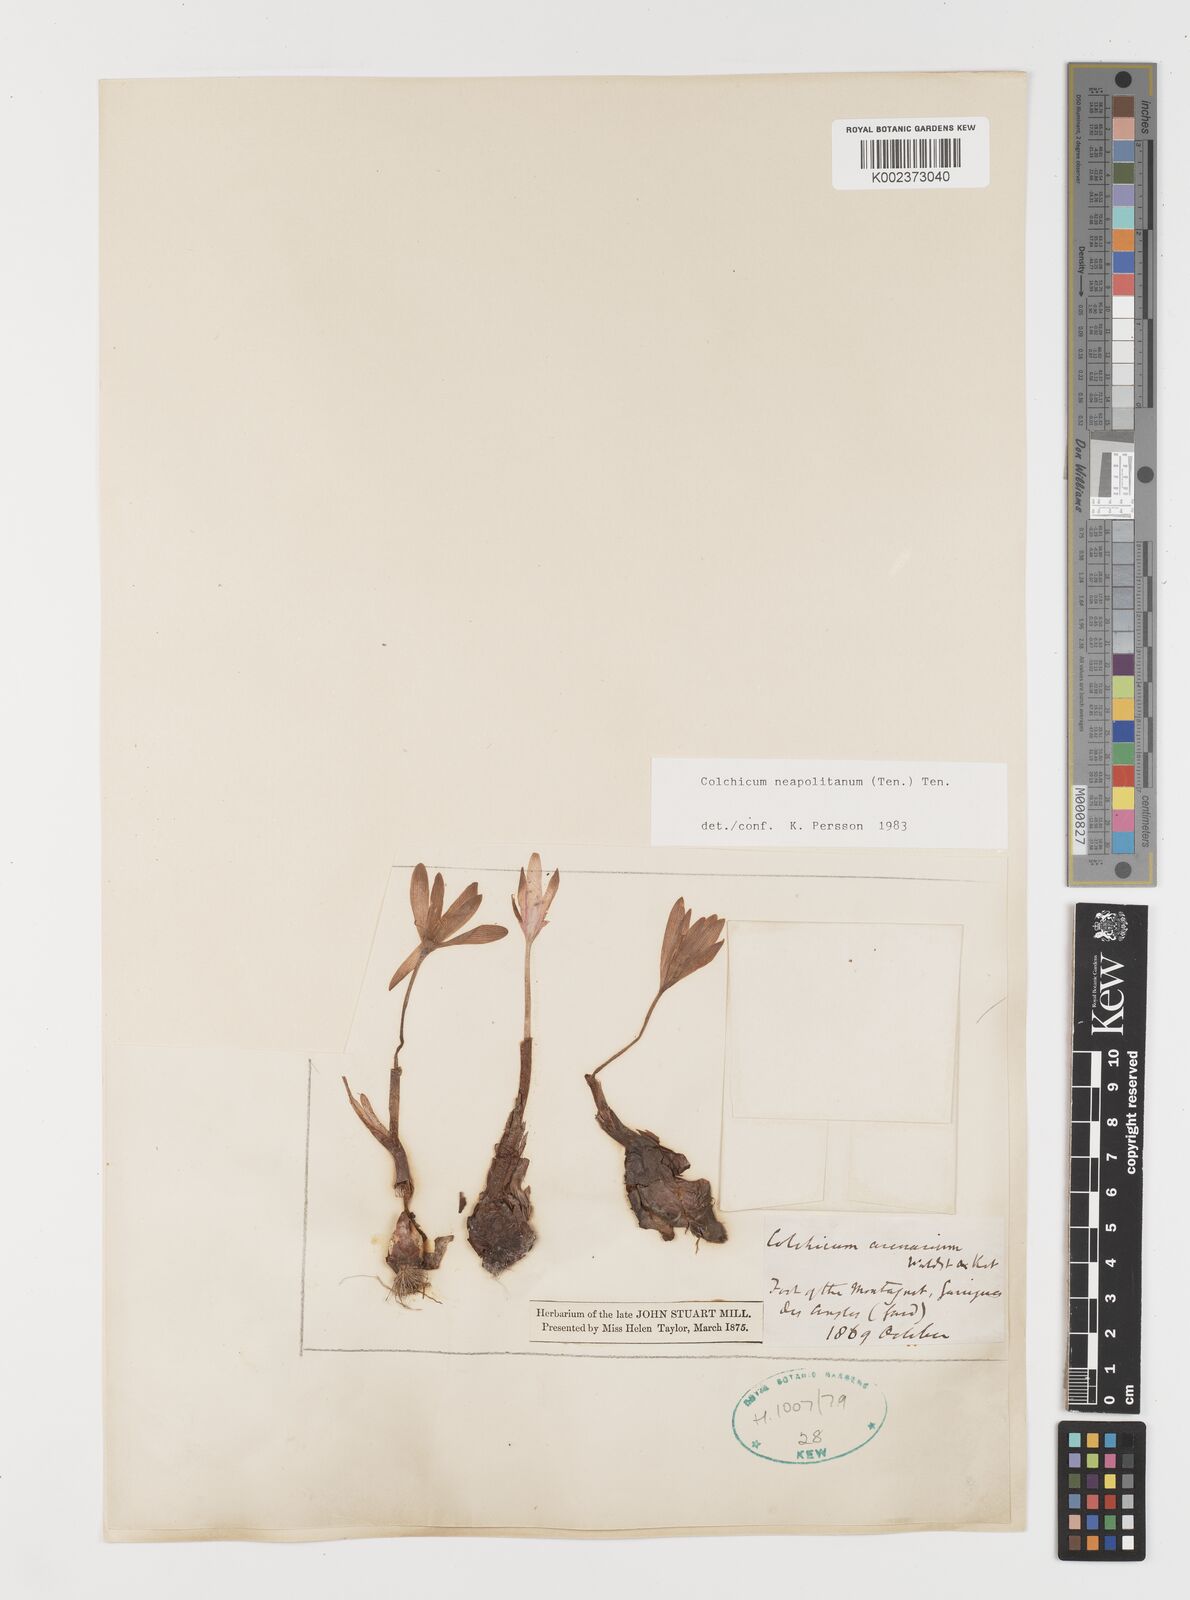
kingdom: Plantae
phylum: Tracheophyta
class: Liliopsida
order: Liliales
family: Colchicaceae
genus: Colchicum
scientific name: Colchicum neapolitanum
